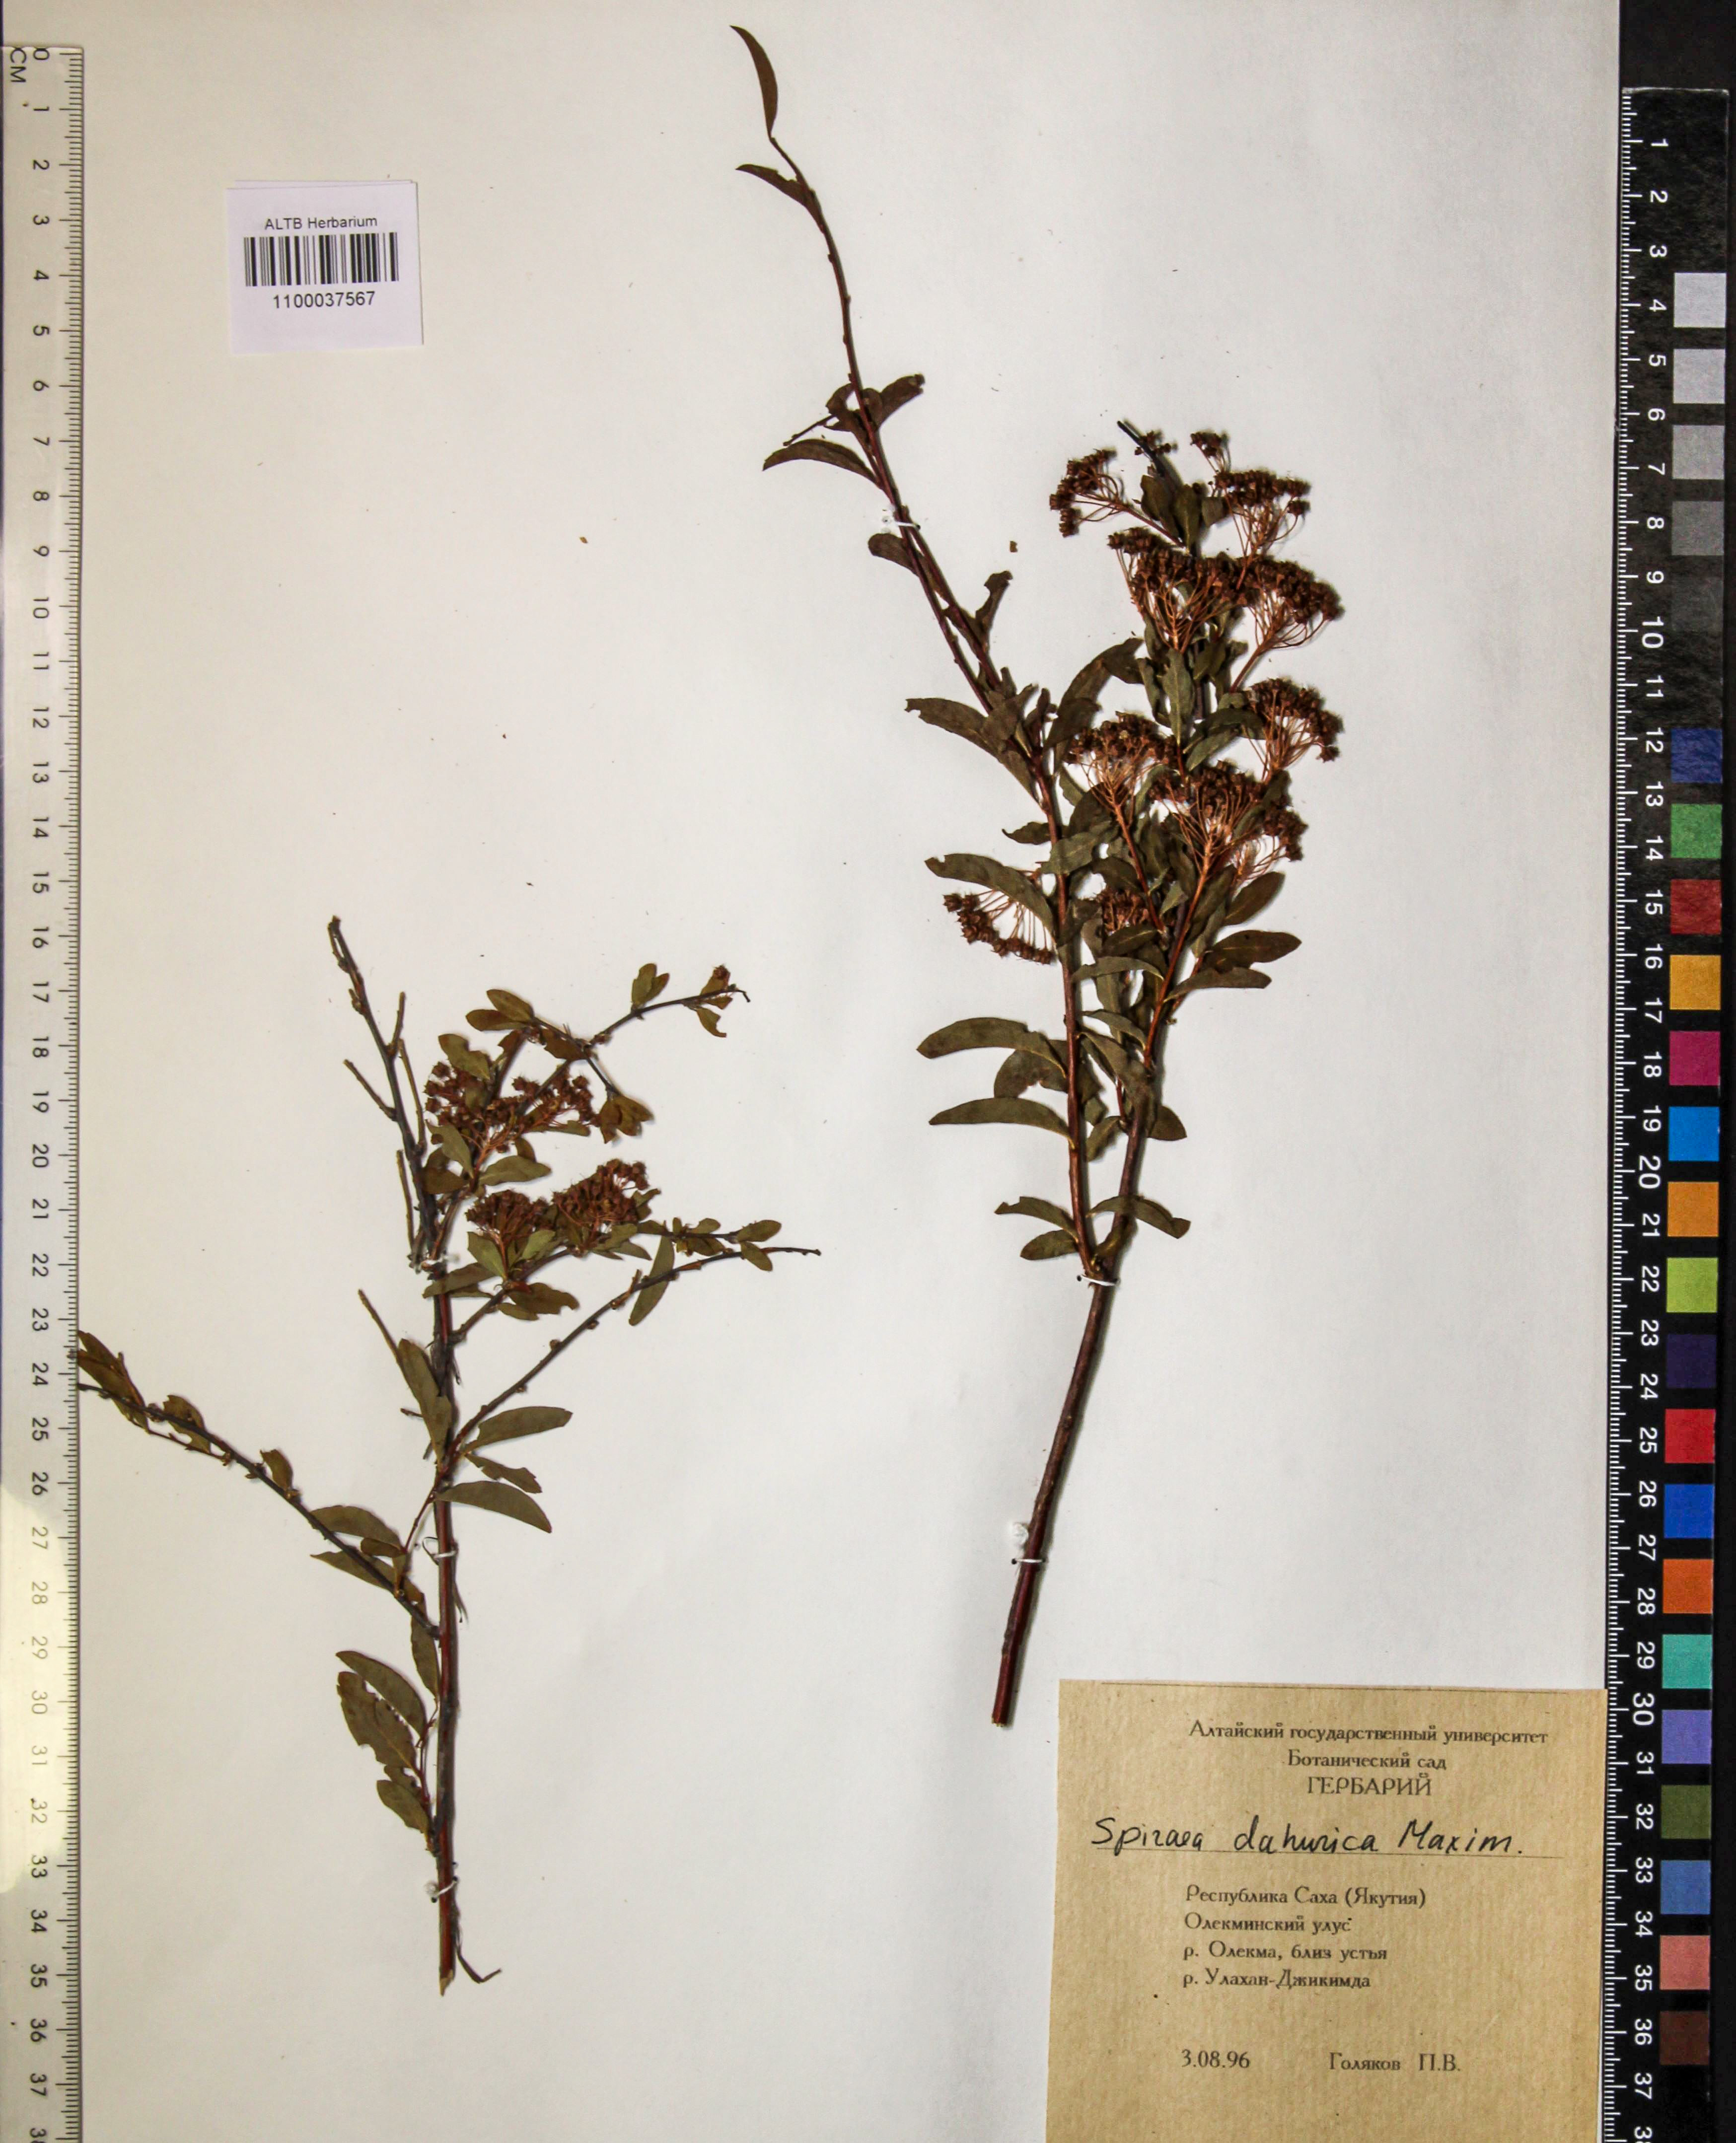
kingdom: Plantae
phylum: Tracheophyta
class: Magnoliopsida
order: Rosales
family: Rosaceae
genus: Spiraea
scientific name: Spiraea dahurica
